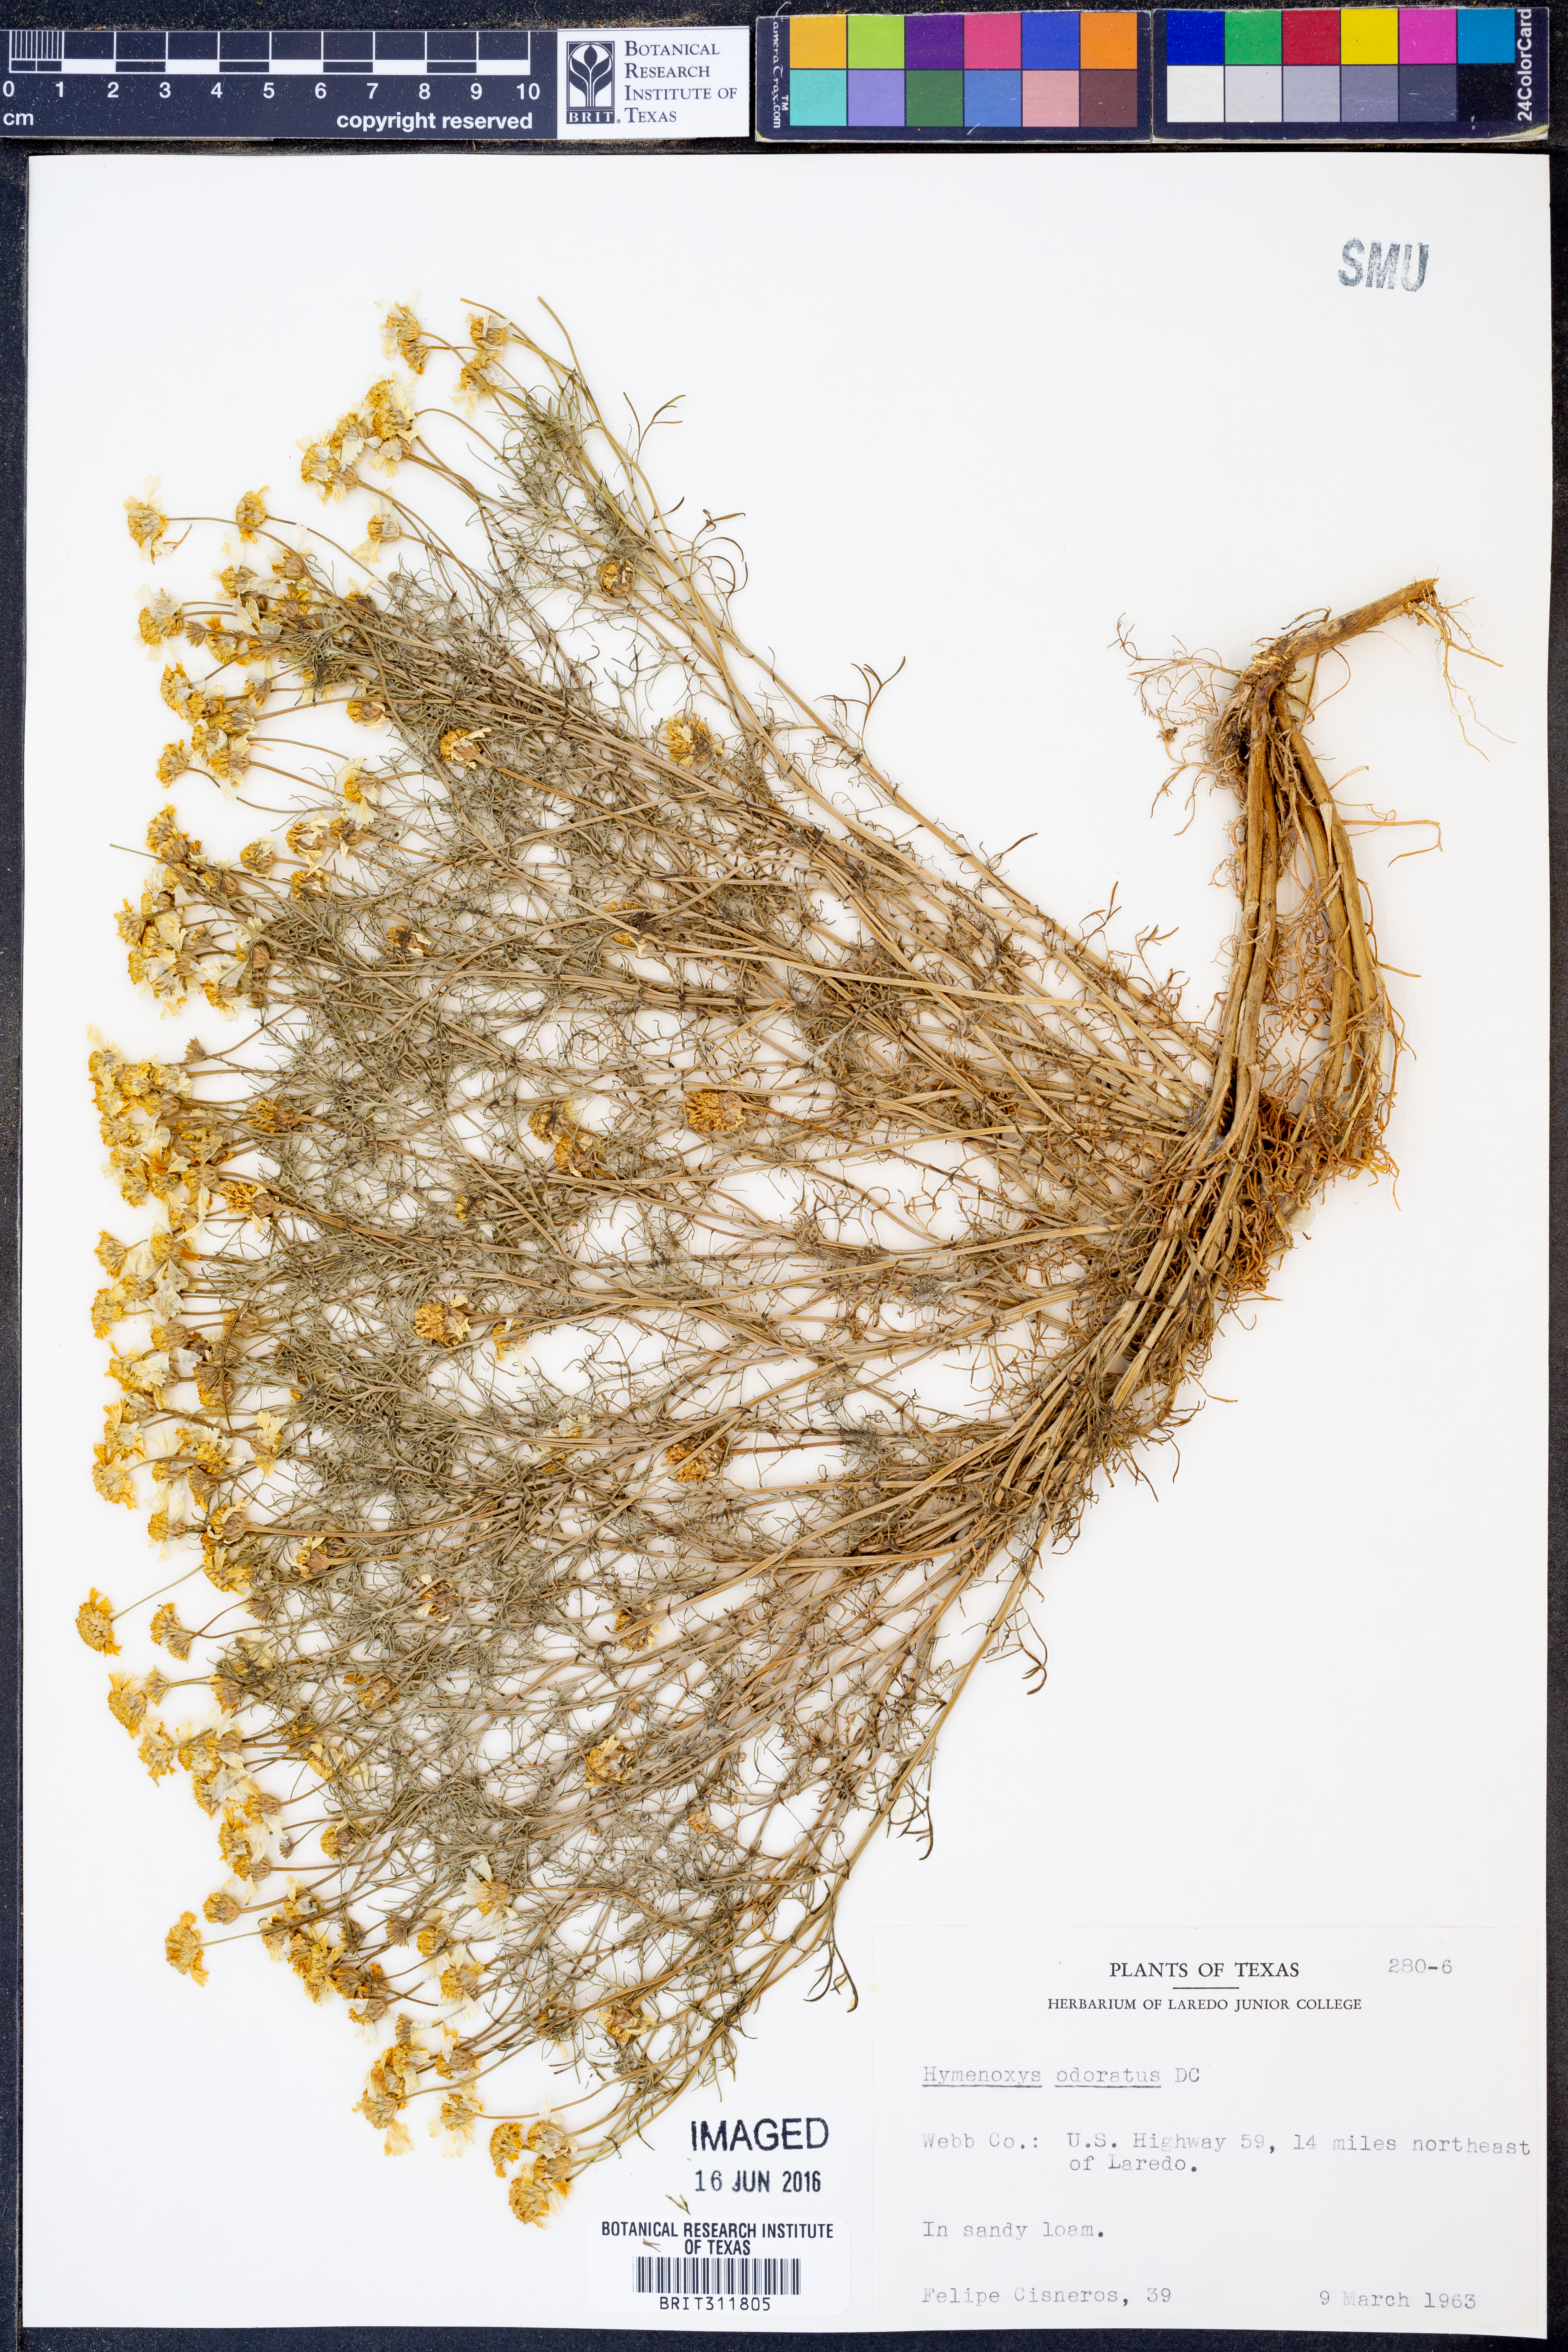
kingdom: Plantae
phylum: Tracheophyta
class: Magnoliopsida
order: Asterales
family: Asteraceae
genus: Hymenoxys
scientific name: Hymenoxys odorata
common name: Bitter rubberweed
